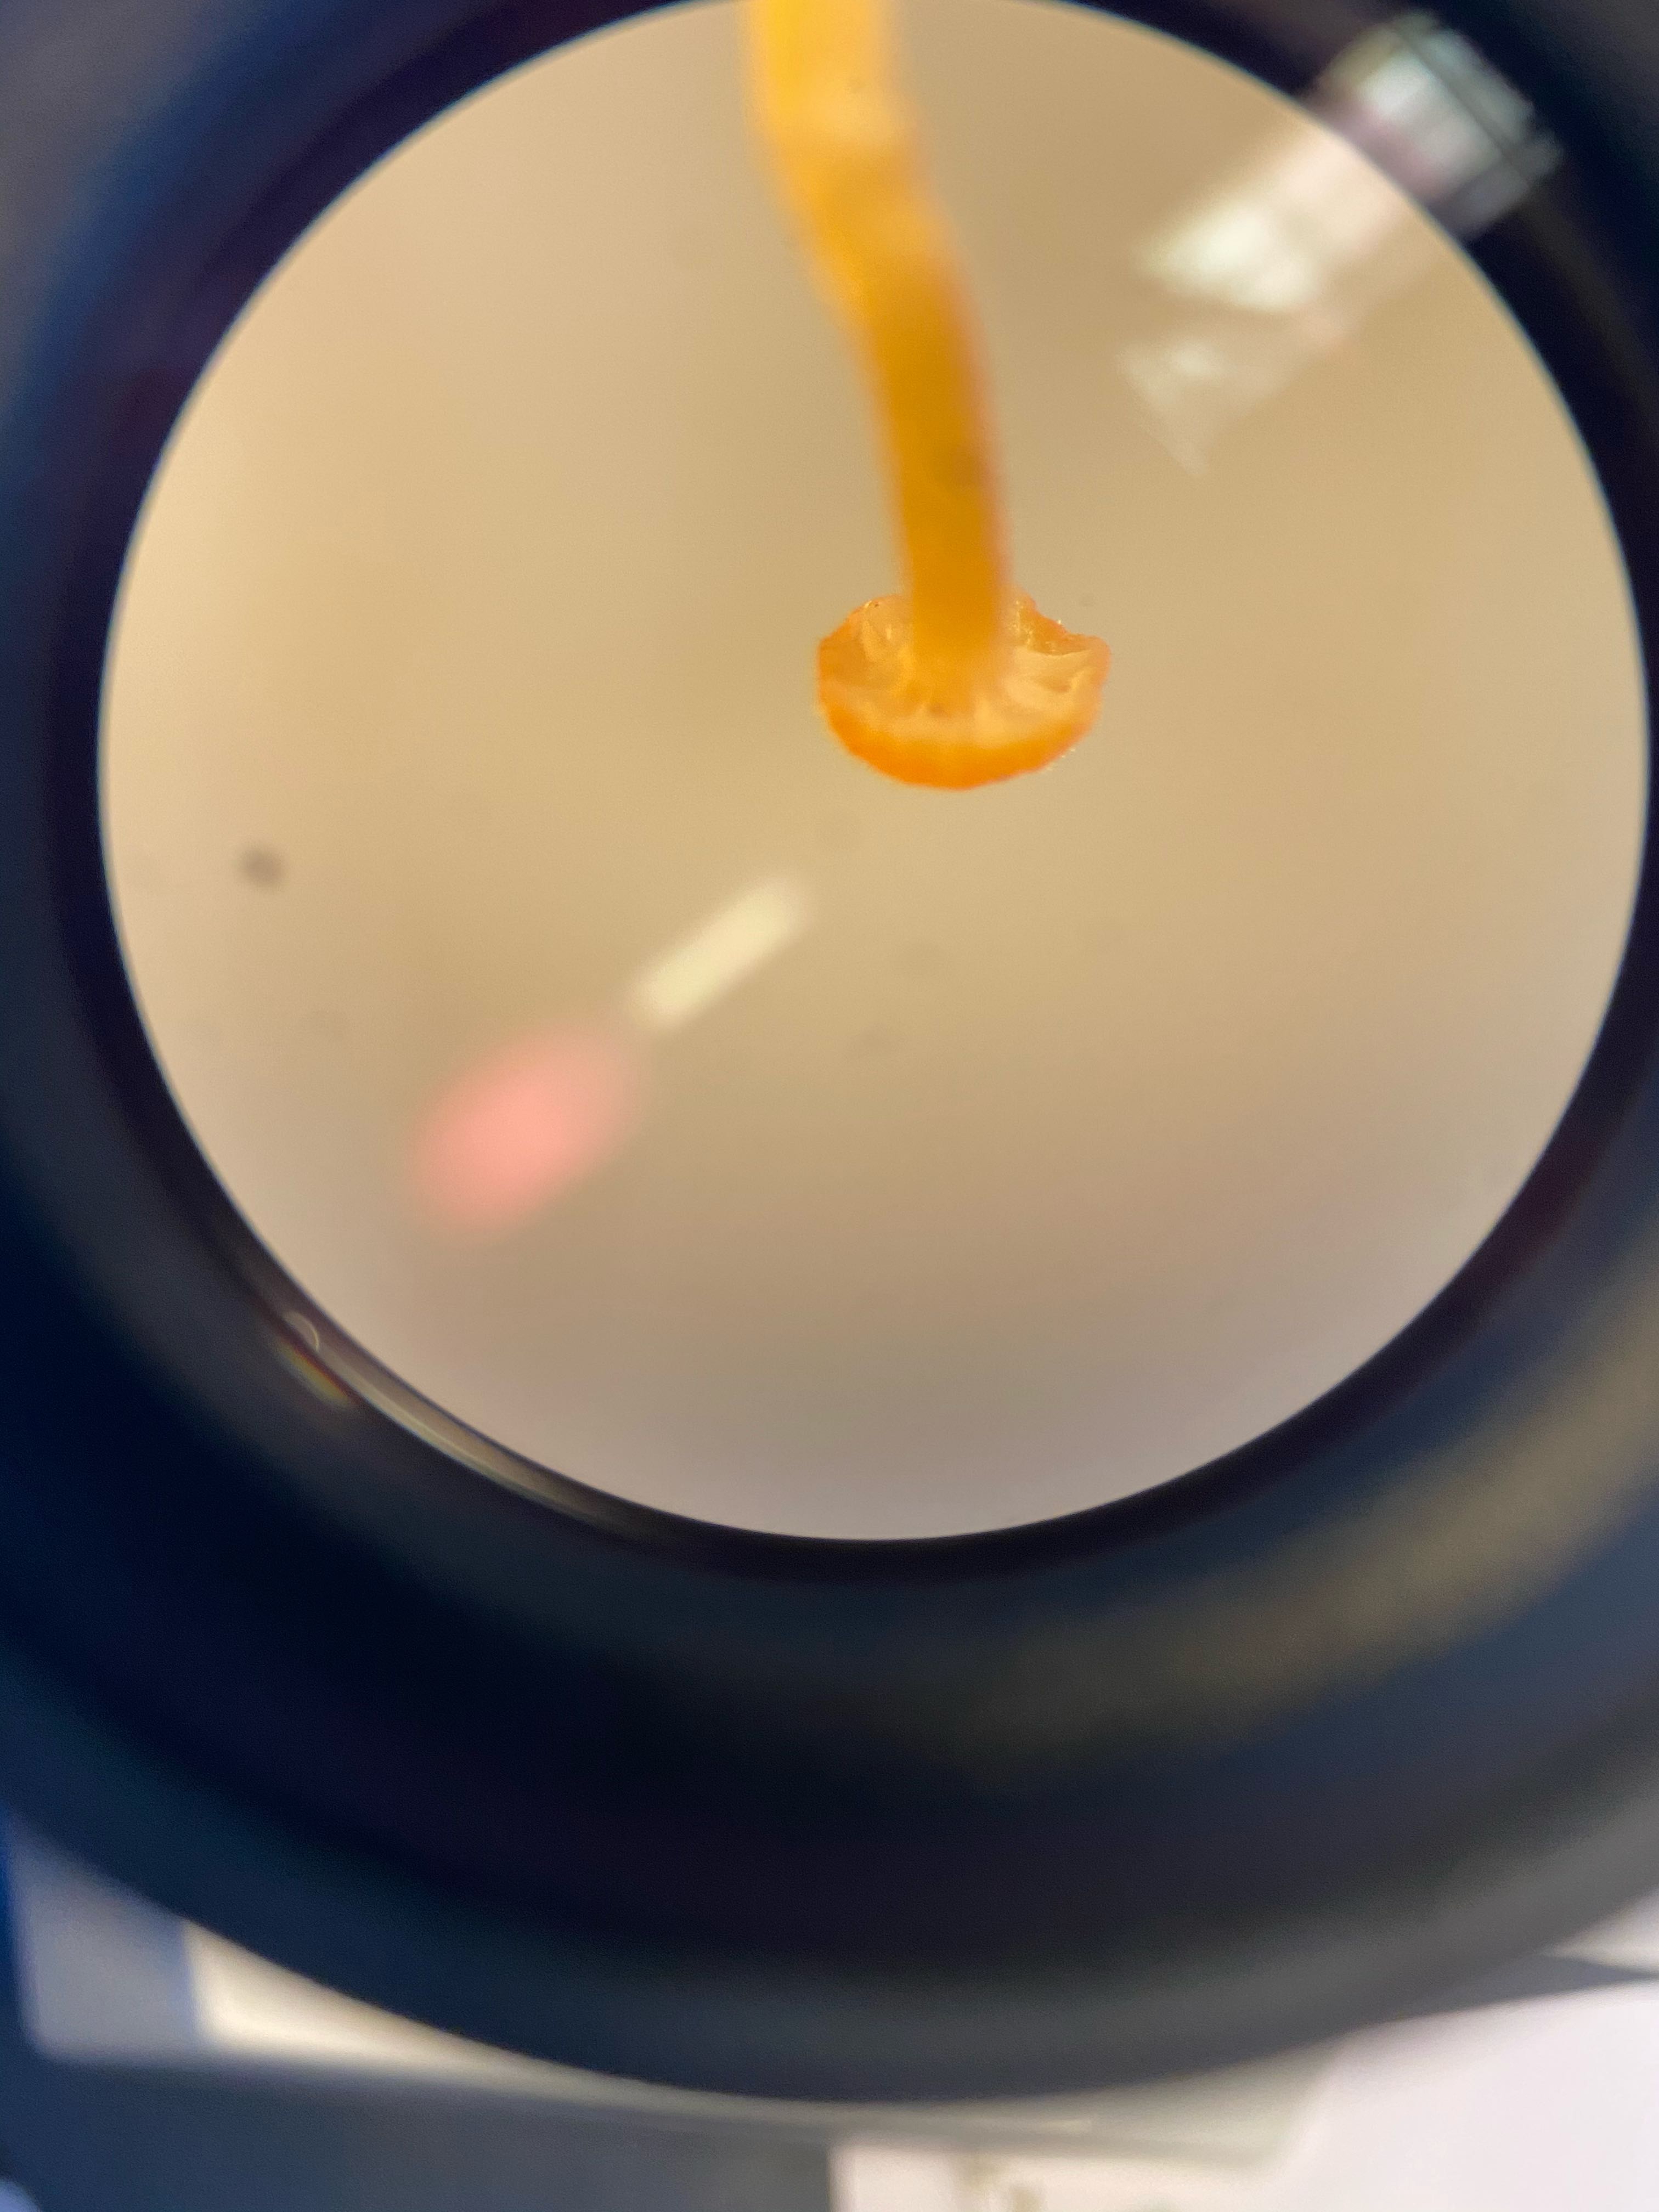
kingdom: Fungi
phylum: Basidiomycota
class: Agaricomycetes
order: Hymenochaetales
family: Rickenellaceae
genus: Rickenella
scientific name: Rickenella fibula
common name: orange mosnavlehat
